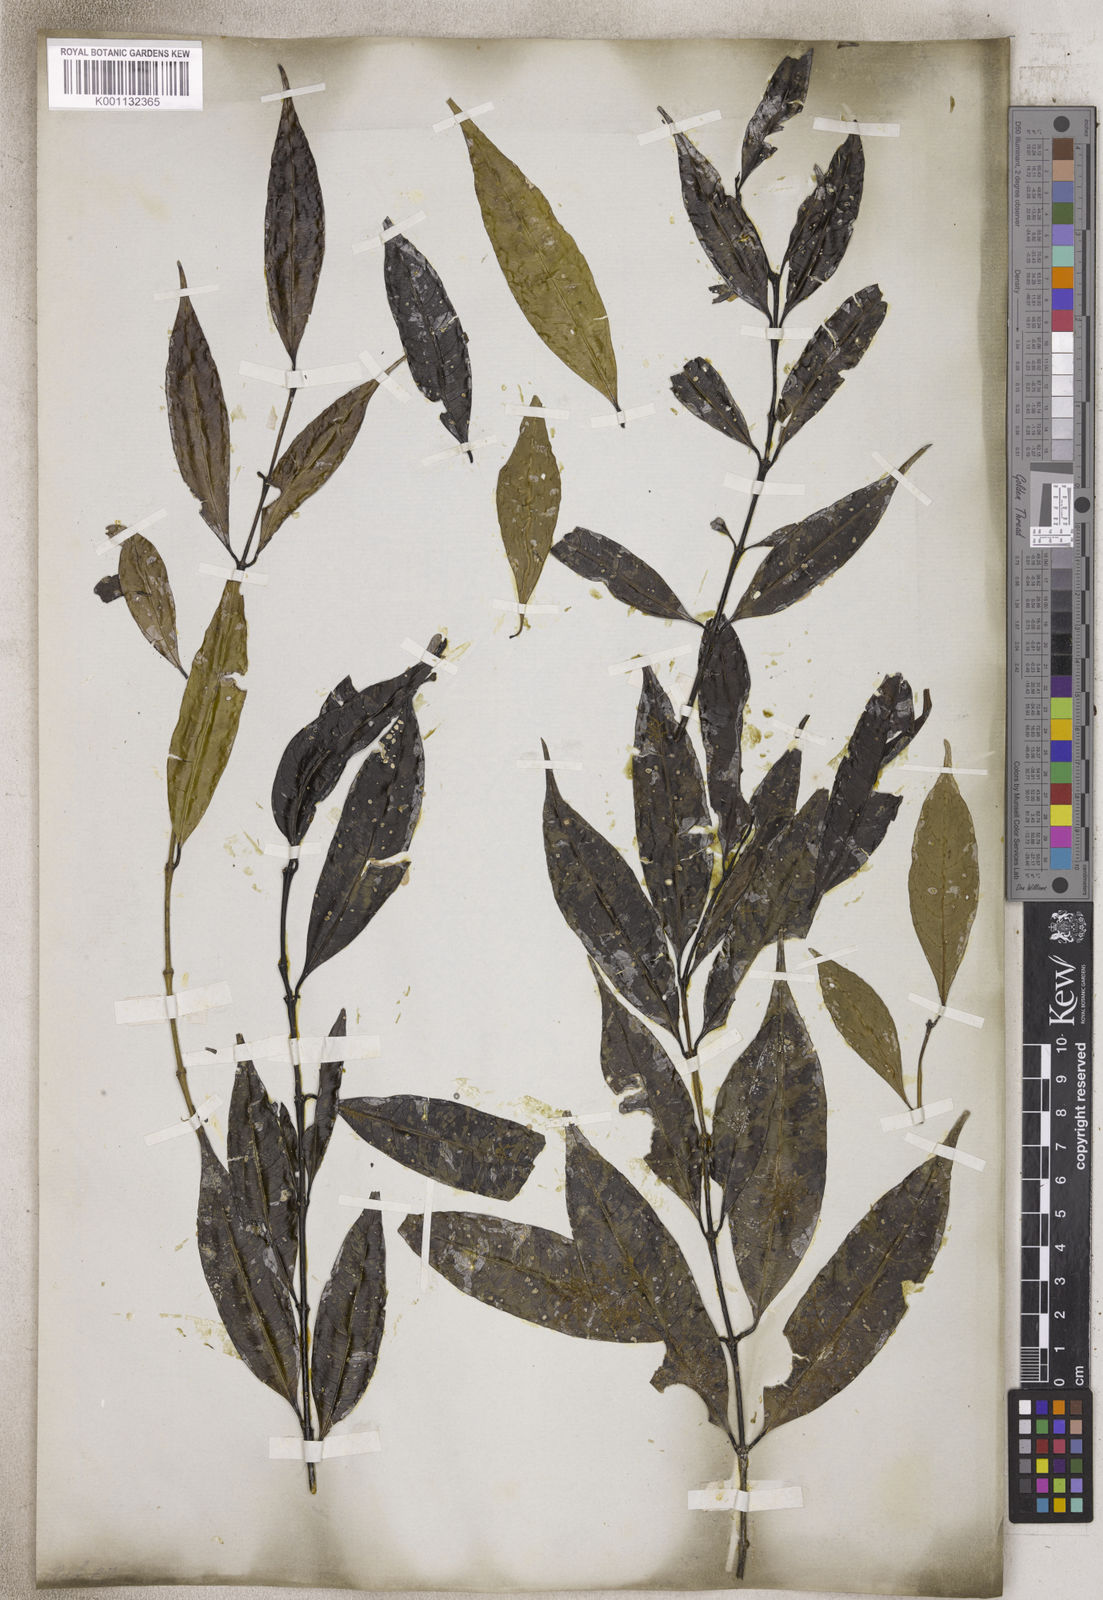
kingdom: Plantae
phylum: Tracheophyta
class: Magnoliopsida
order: Gentianales
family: Rubiaceae
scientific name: Rubiaceae
